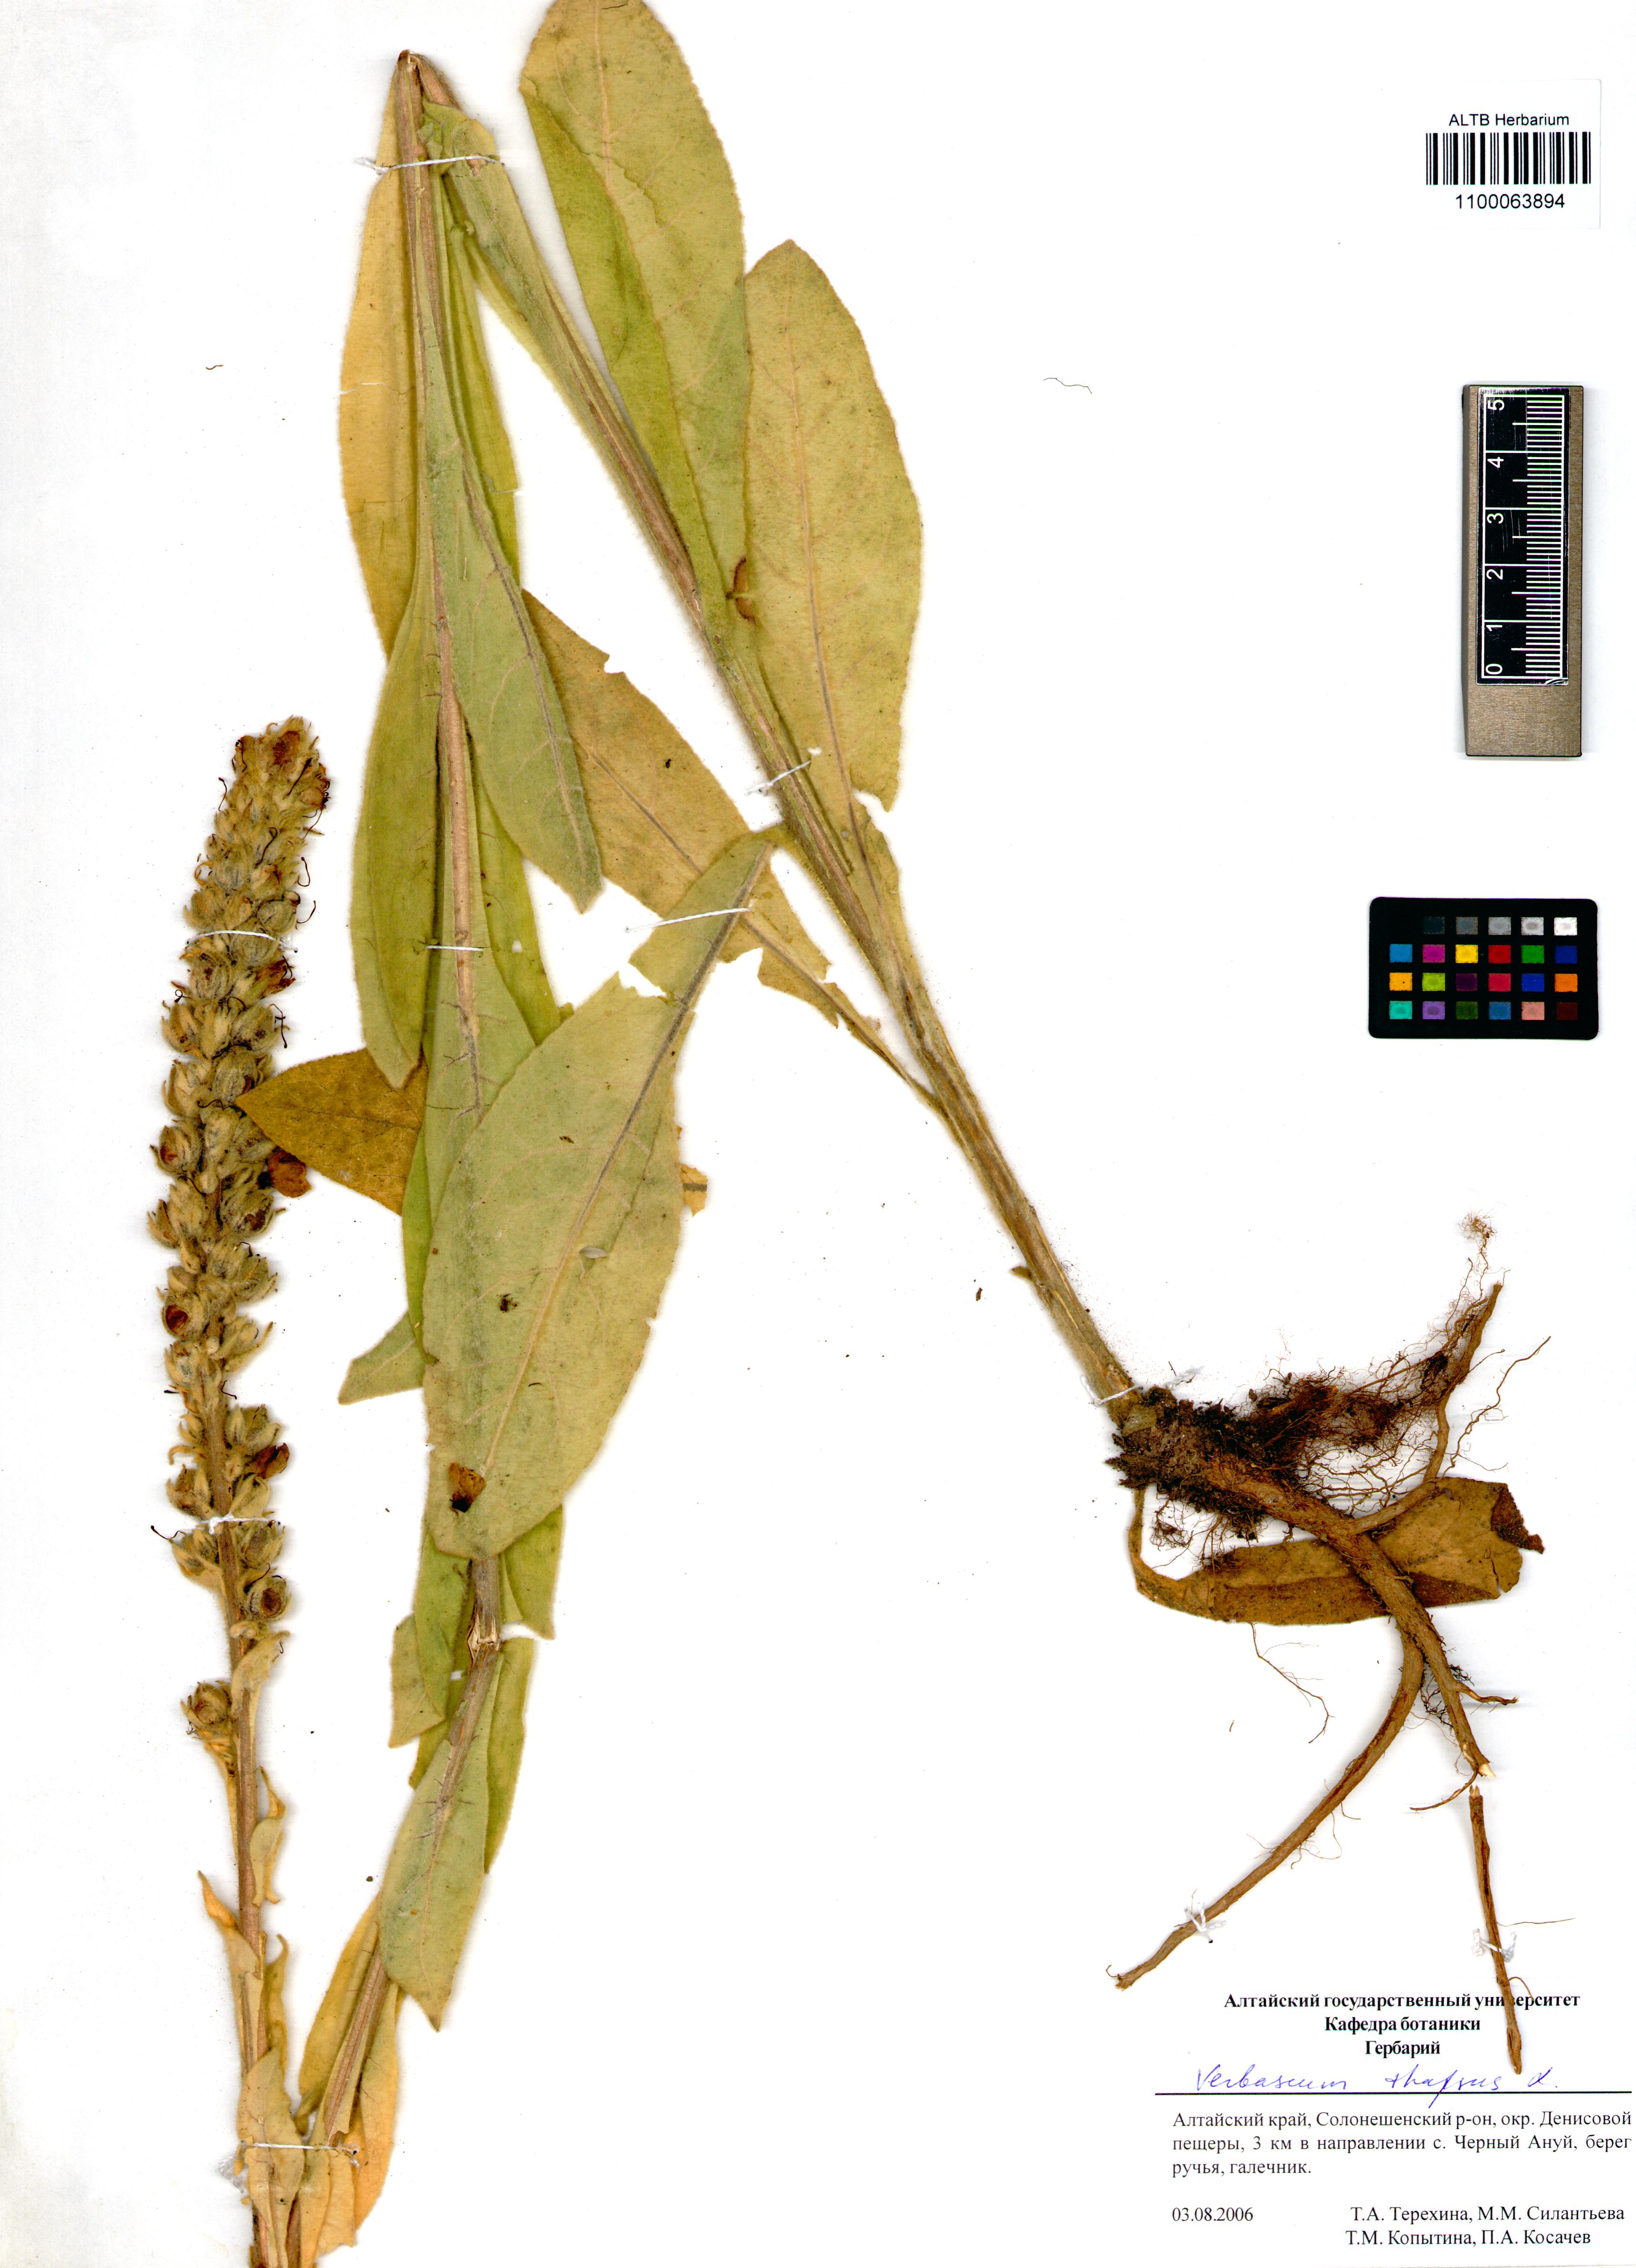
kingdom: Plantae
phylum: Tracheophyta
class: Magnoliopsida
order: Lamiales
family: Scrophulariaceae
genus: Verbascum
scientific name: Verbascum thapsus
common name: Common mullein
